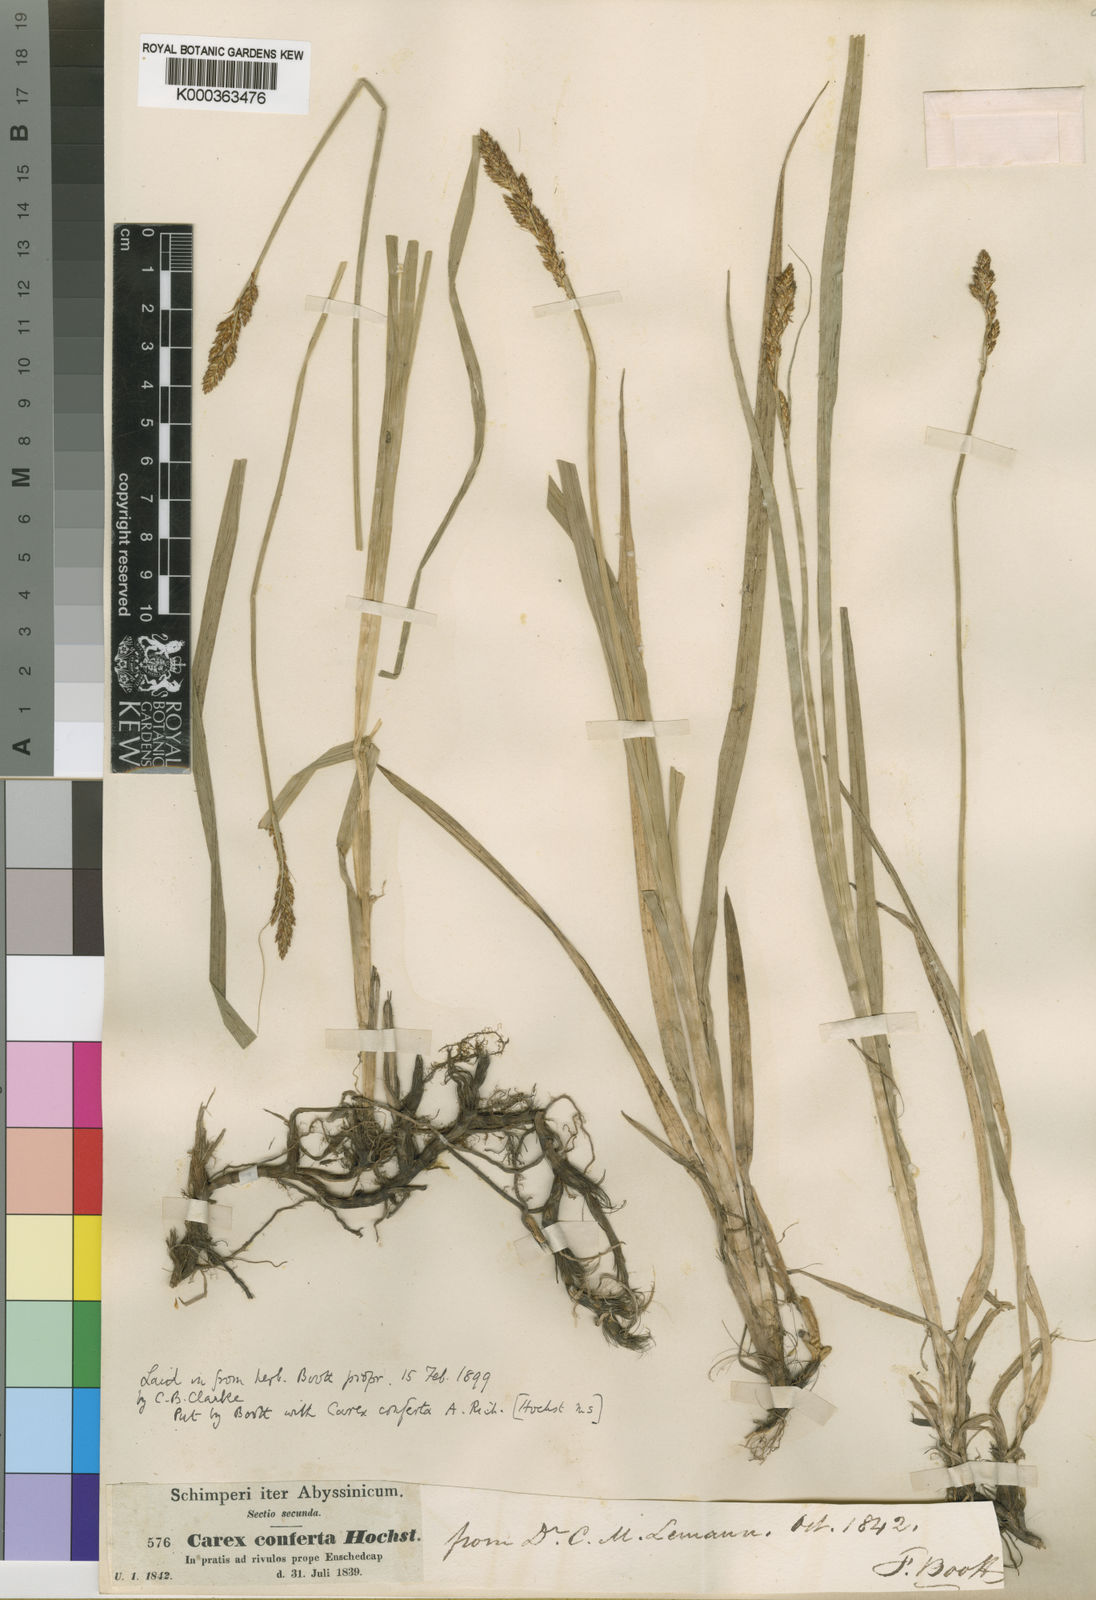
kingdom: Plantae
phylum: Tracheophyta
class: Liliopsida
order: Poales
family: Cyperaceae
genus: Carex
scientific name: Carex conferta
